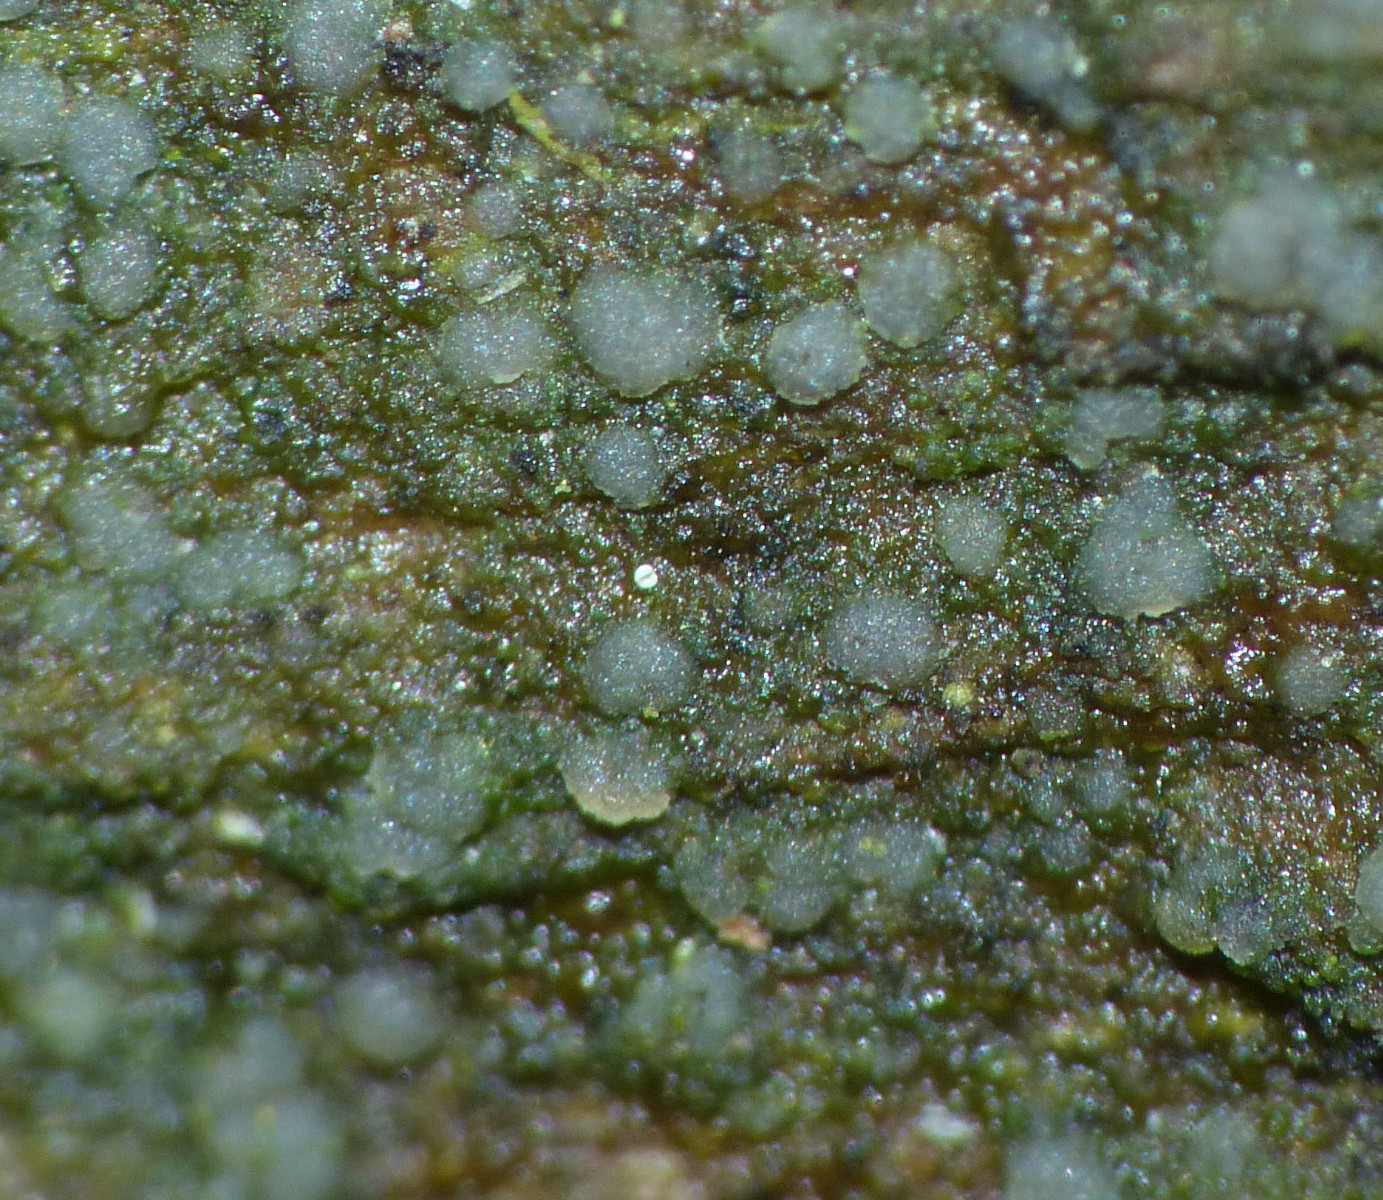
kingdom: Fungi
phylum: Ascomycota
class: Lecanoromycetes
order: Lecanorales
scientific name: Lecanorales
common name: skivelavordenen
